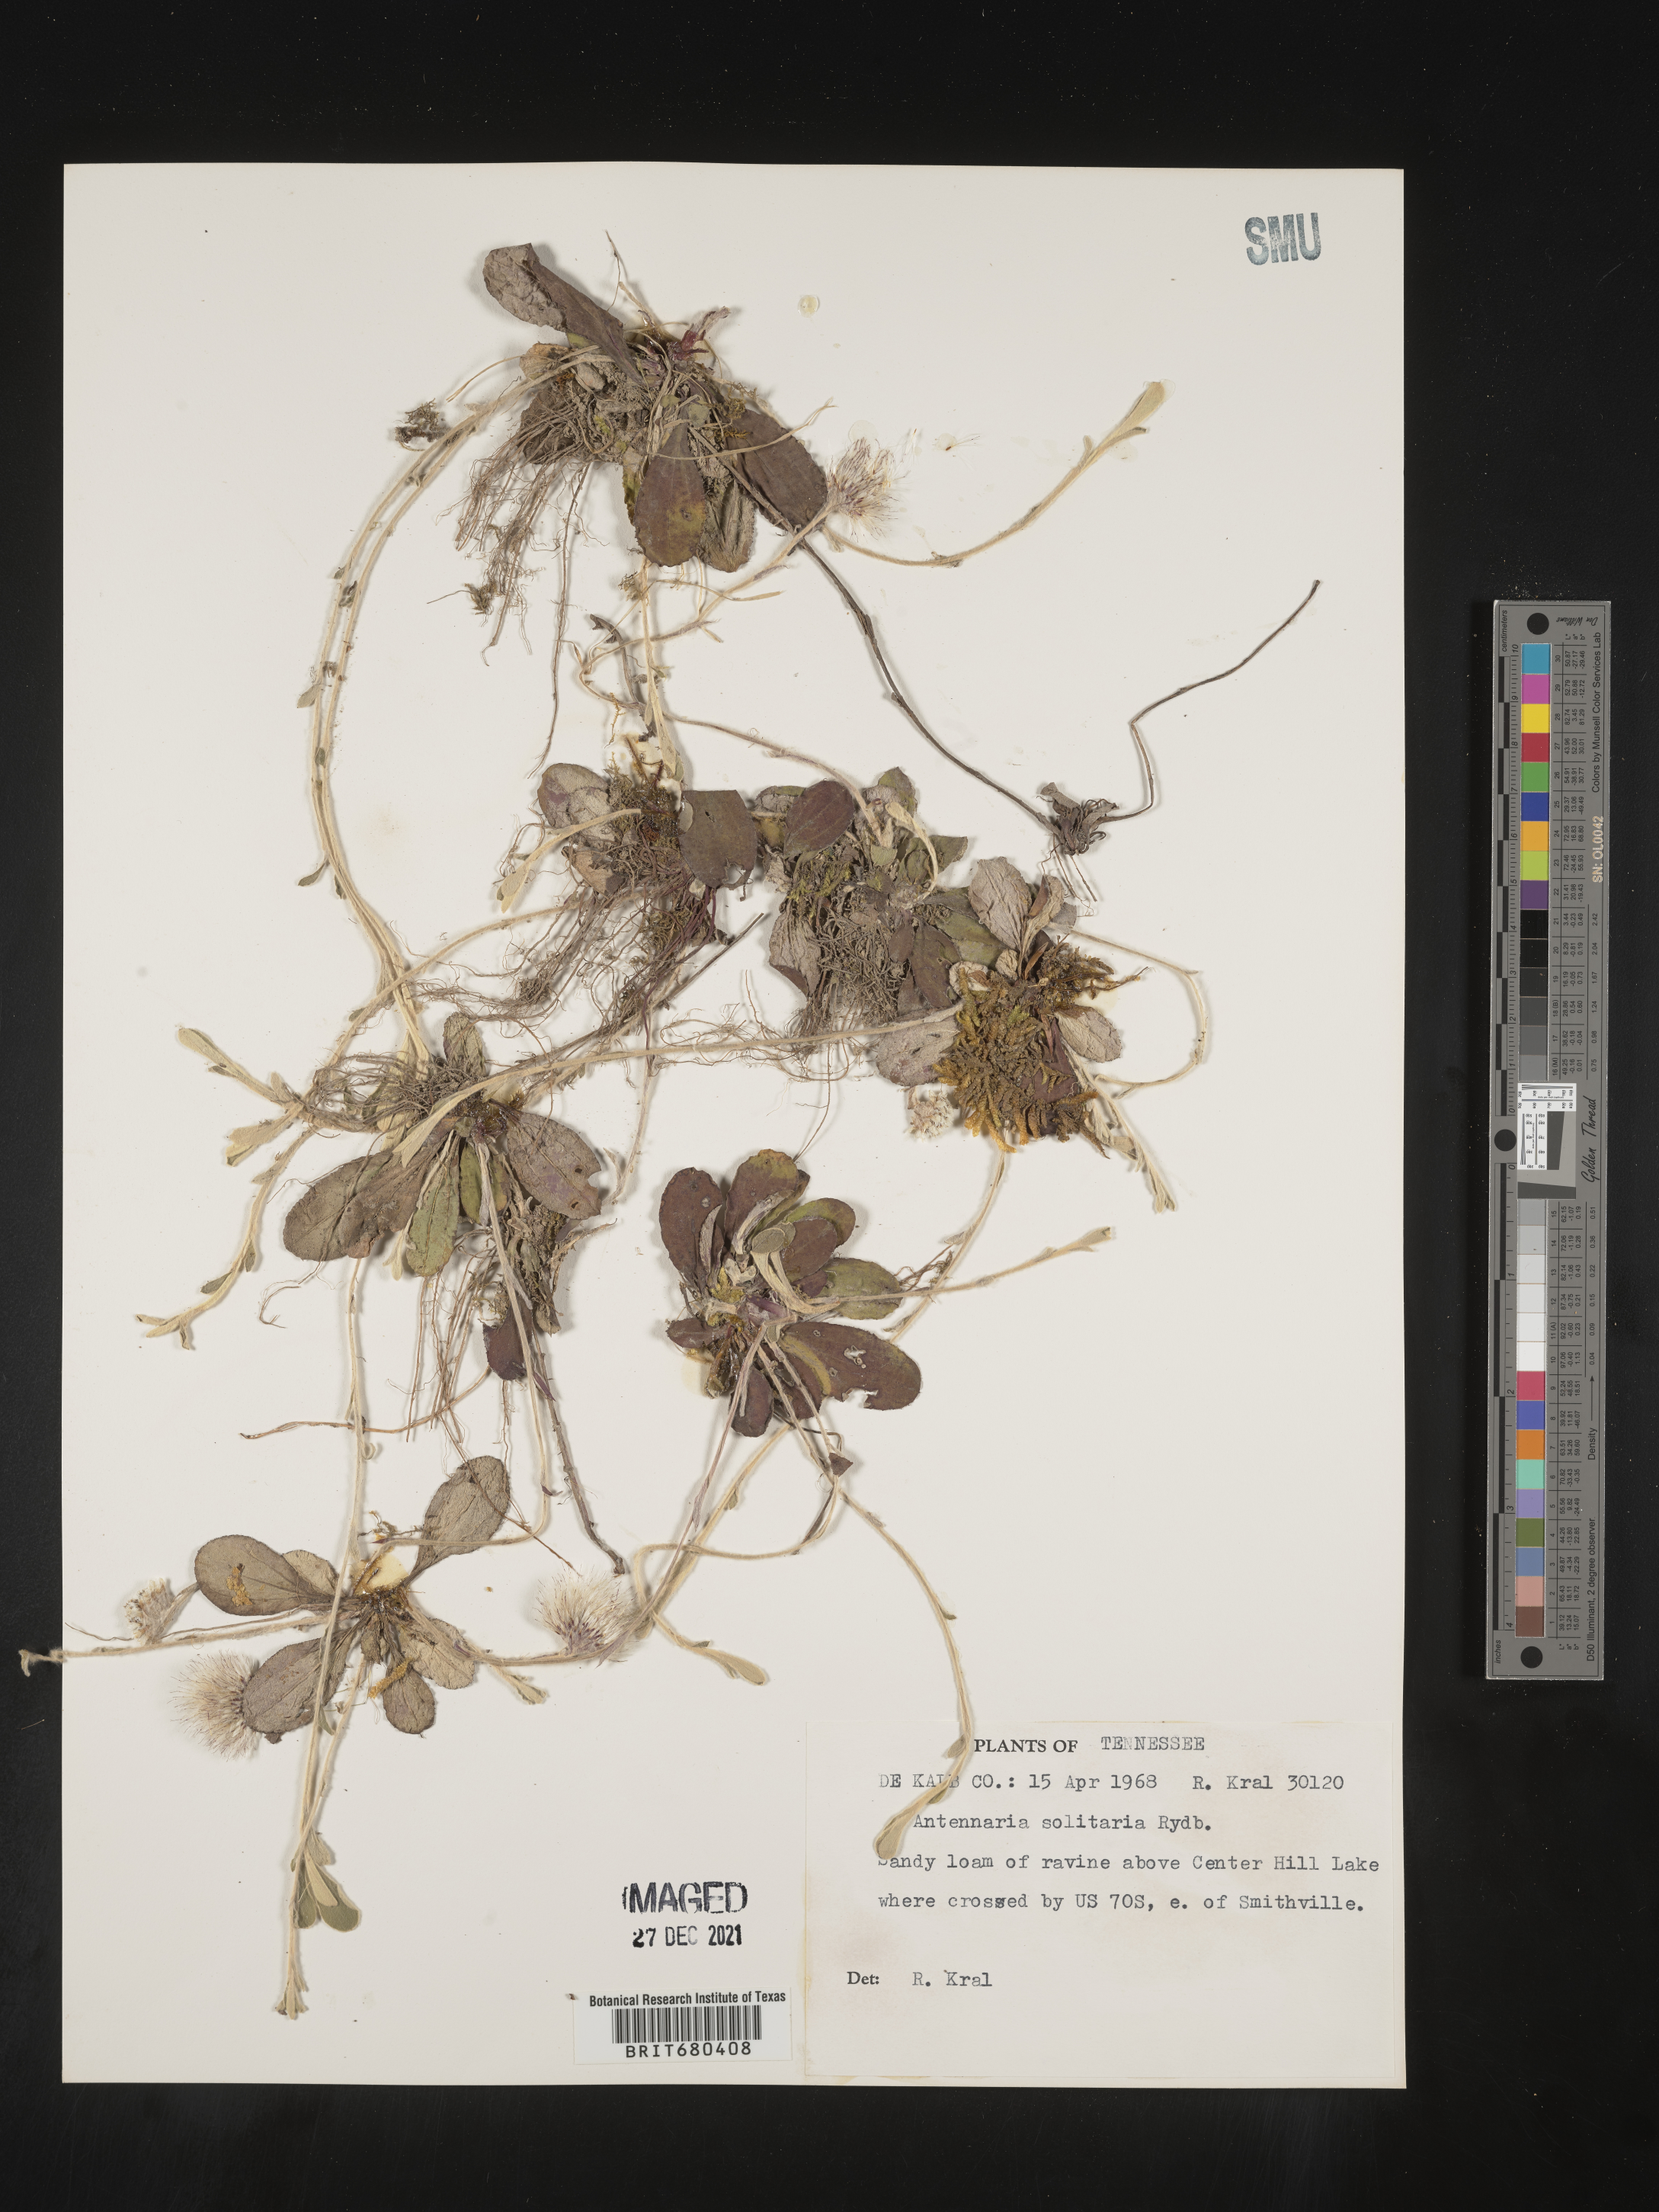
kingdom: Plantae
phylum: Tracheophyta
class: Magnoliopsida
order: Asterales
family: Asteraceae
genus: Antennaria
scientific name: Antennaria solitaria
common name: Single-head pussytoes
